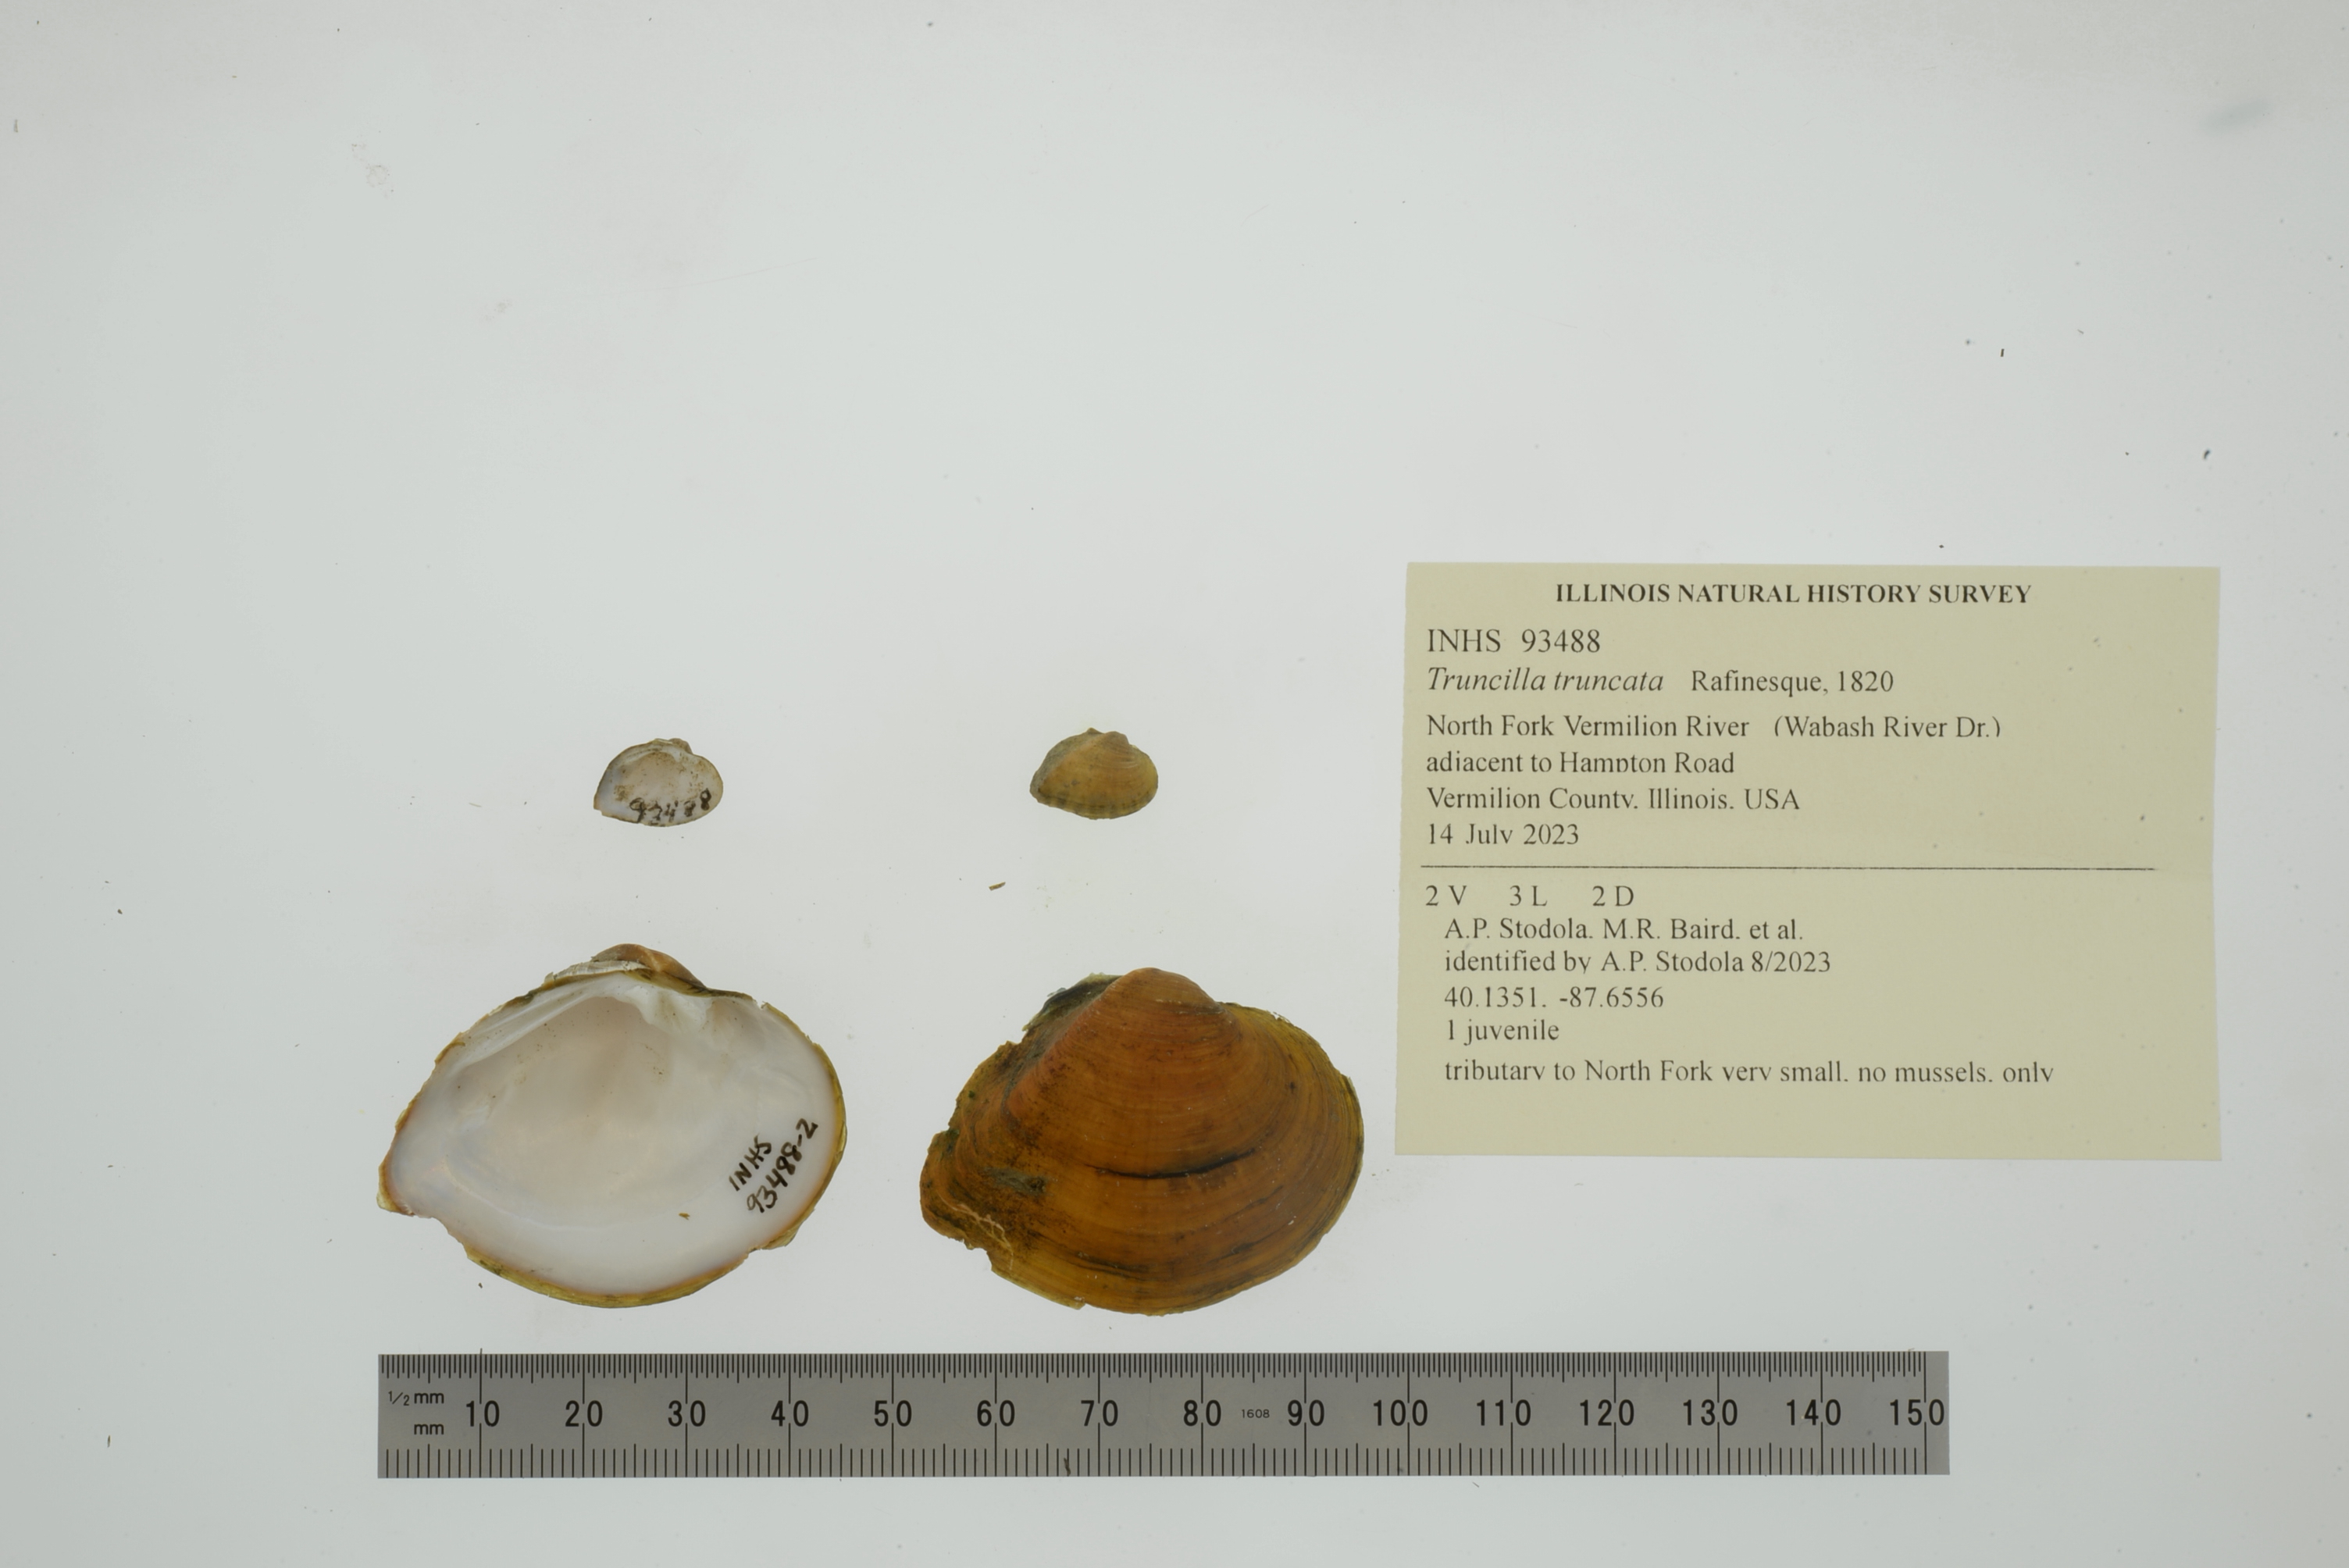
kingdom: Animalia
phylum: Mollusca
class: Bivalvia
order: Unionida
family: Unionidae
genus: Truncilla
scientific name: Truncilla truncata
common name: Deertoe
